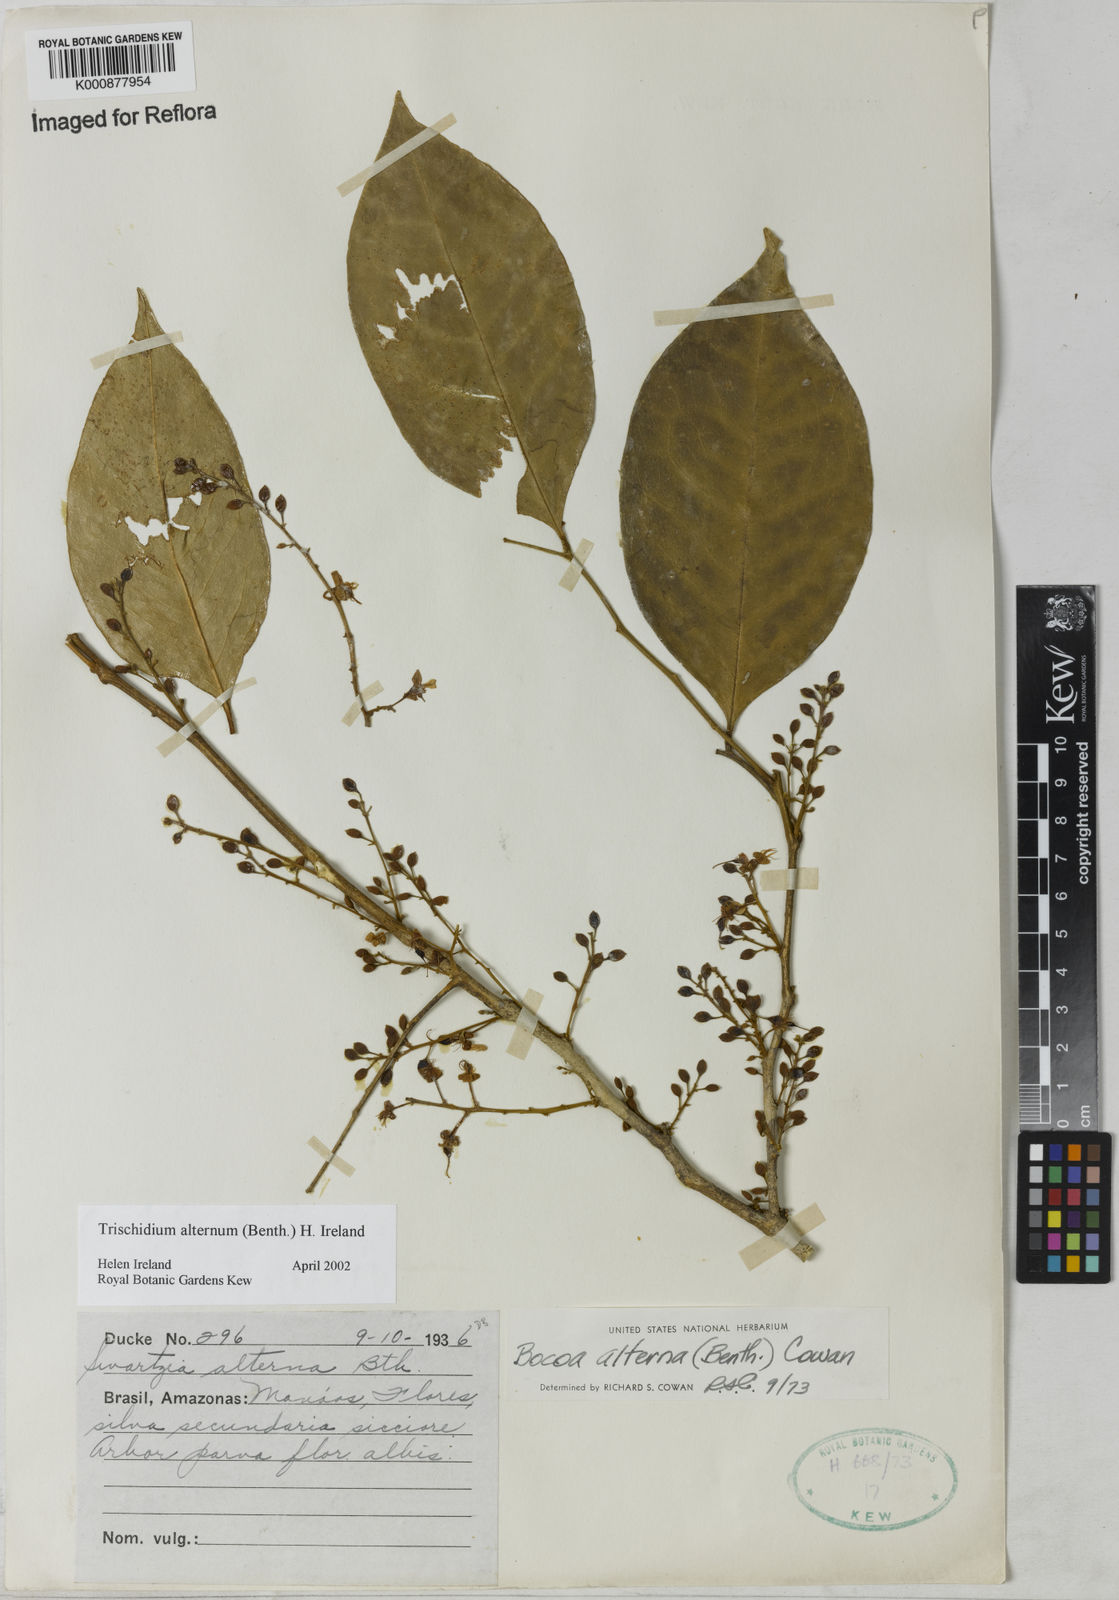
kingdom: Plantae
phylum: Tracheophyta
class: Magnoliopsida
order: Fabales
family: Fabaceae
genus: Trischidium
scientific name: Trischidium alternum
